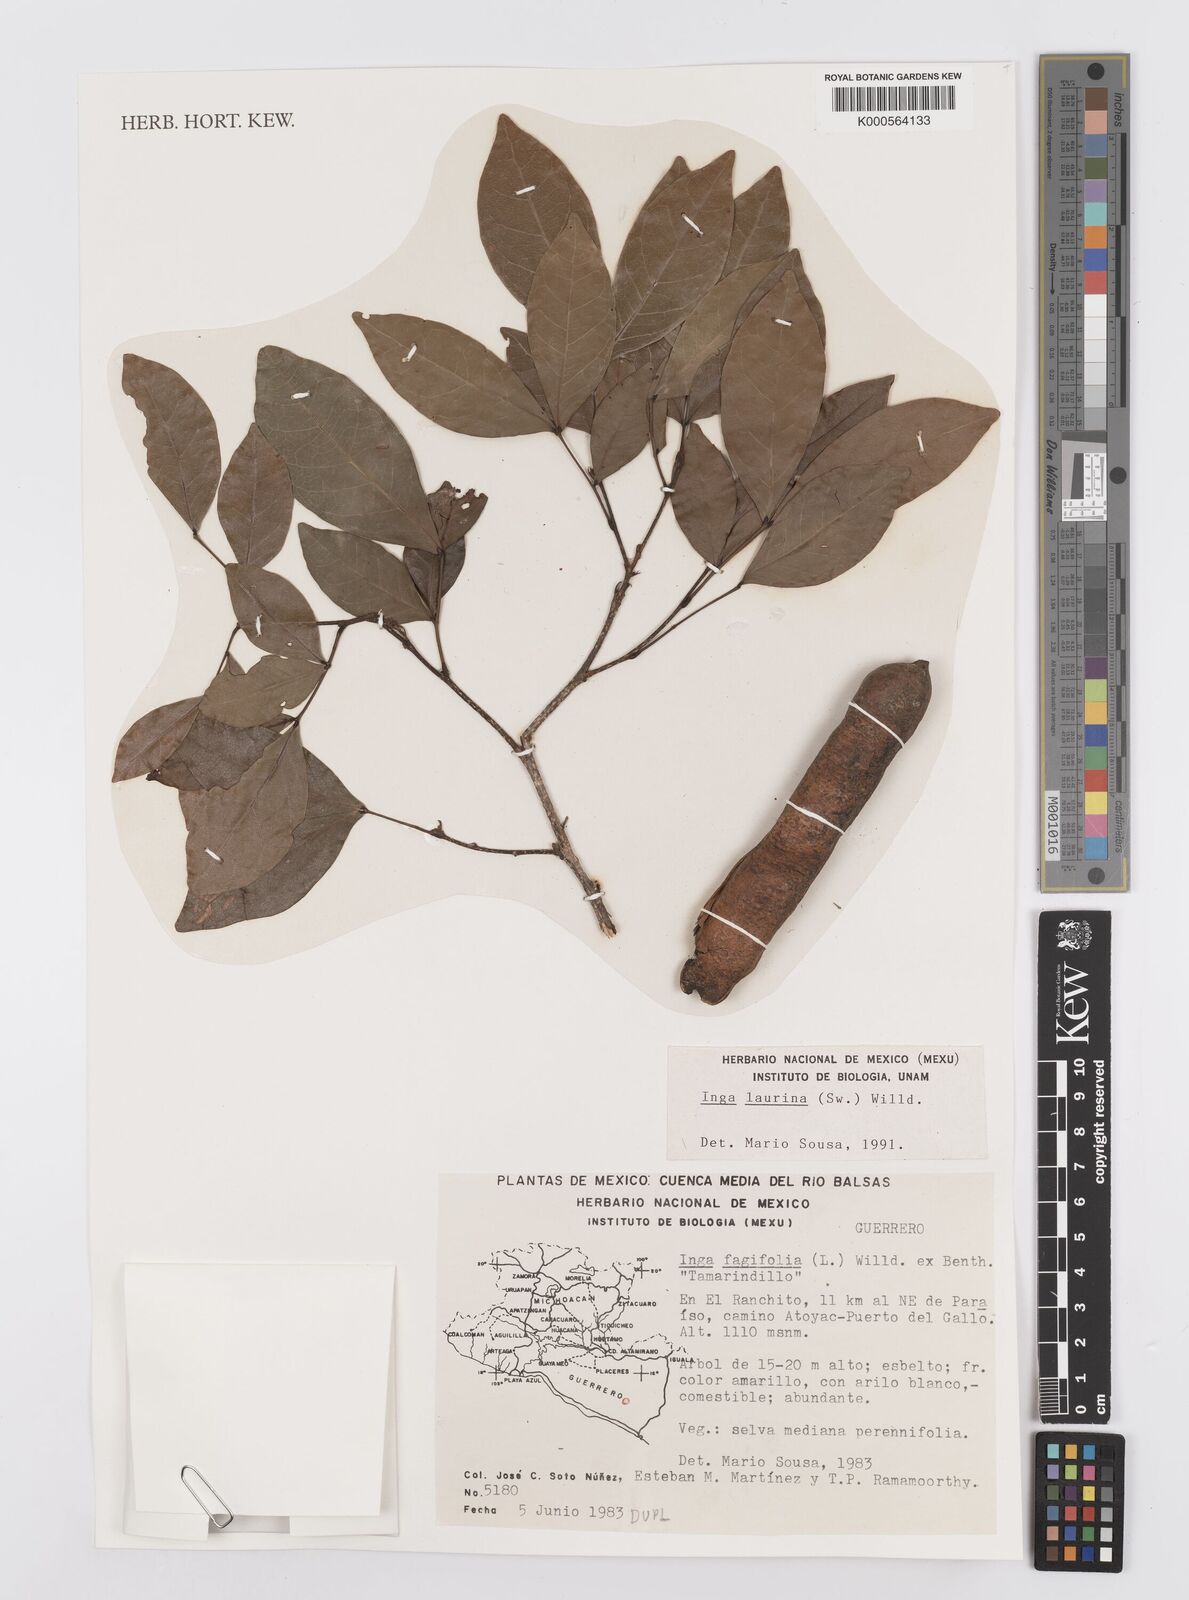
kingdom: Plantae
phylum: Tracheophyta
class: Magnoliopsida
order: Fabales
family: Fabaceae
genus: Inga
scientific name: Inga laurina
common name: Red wood
